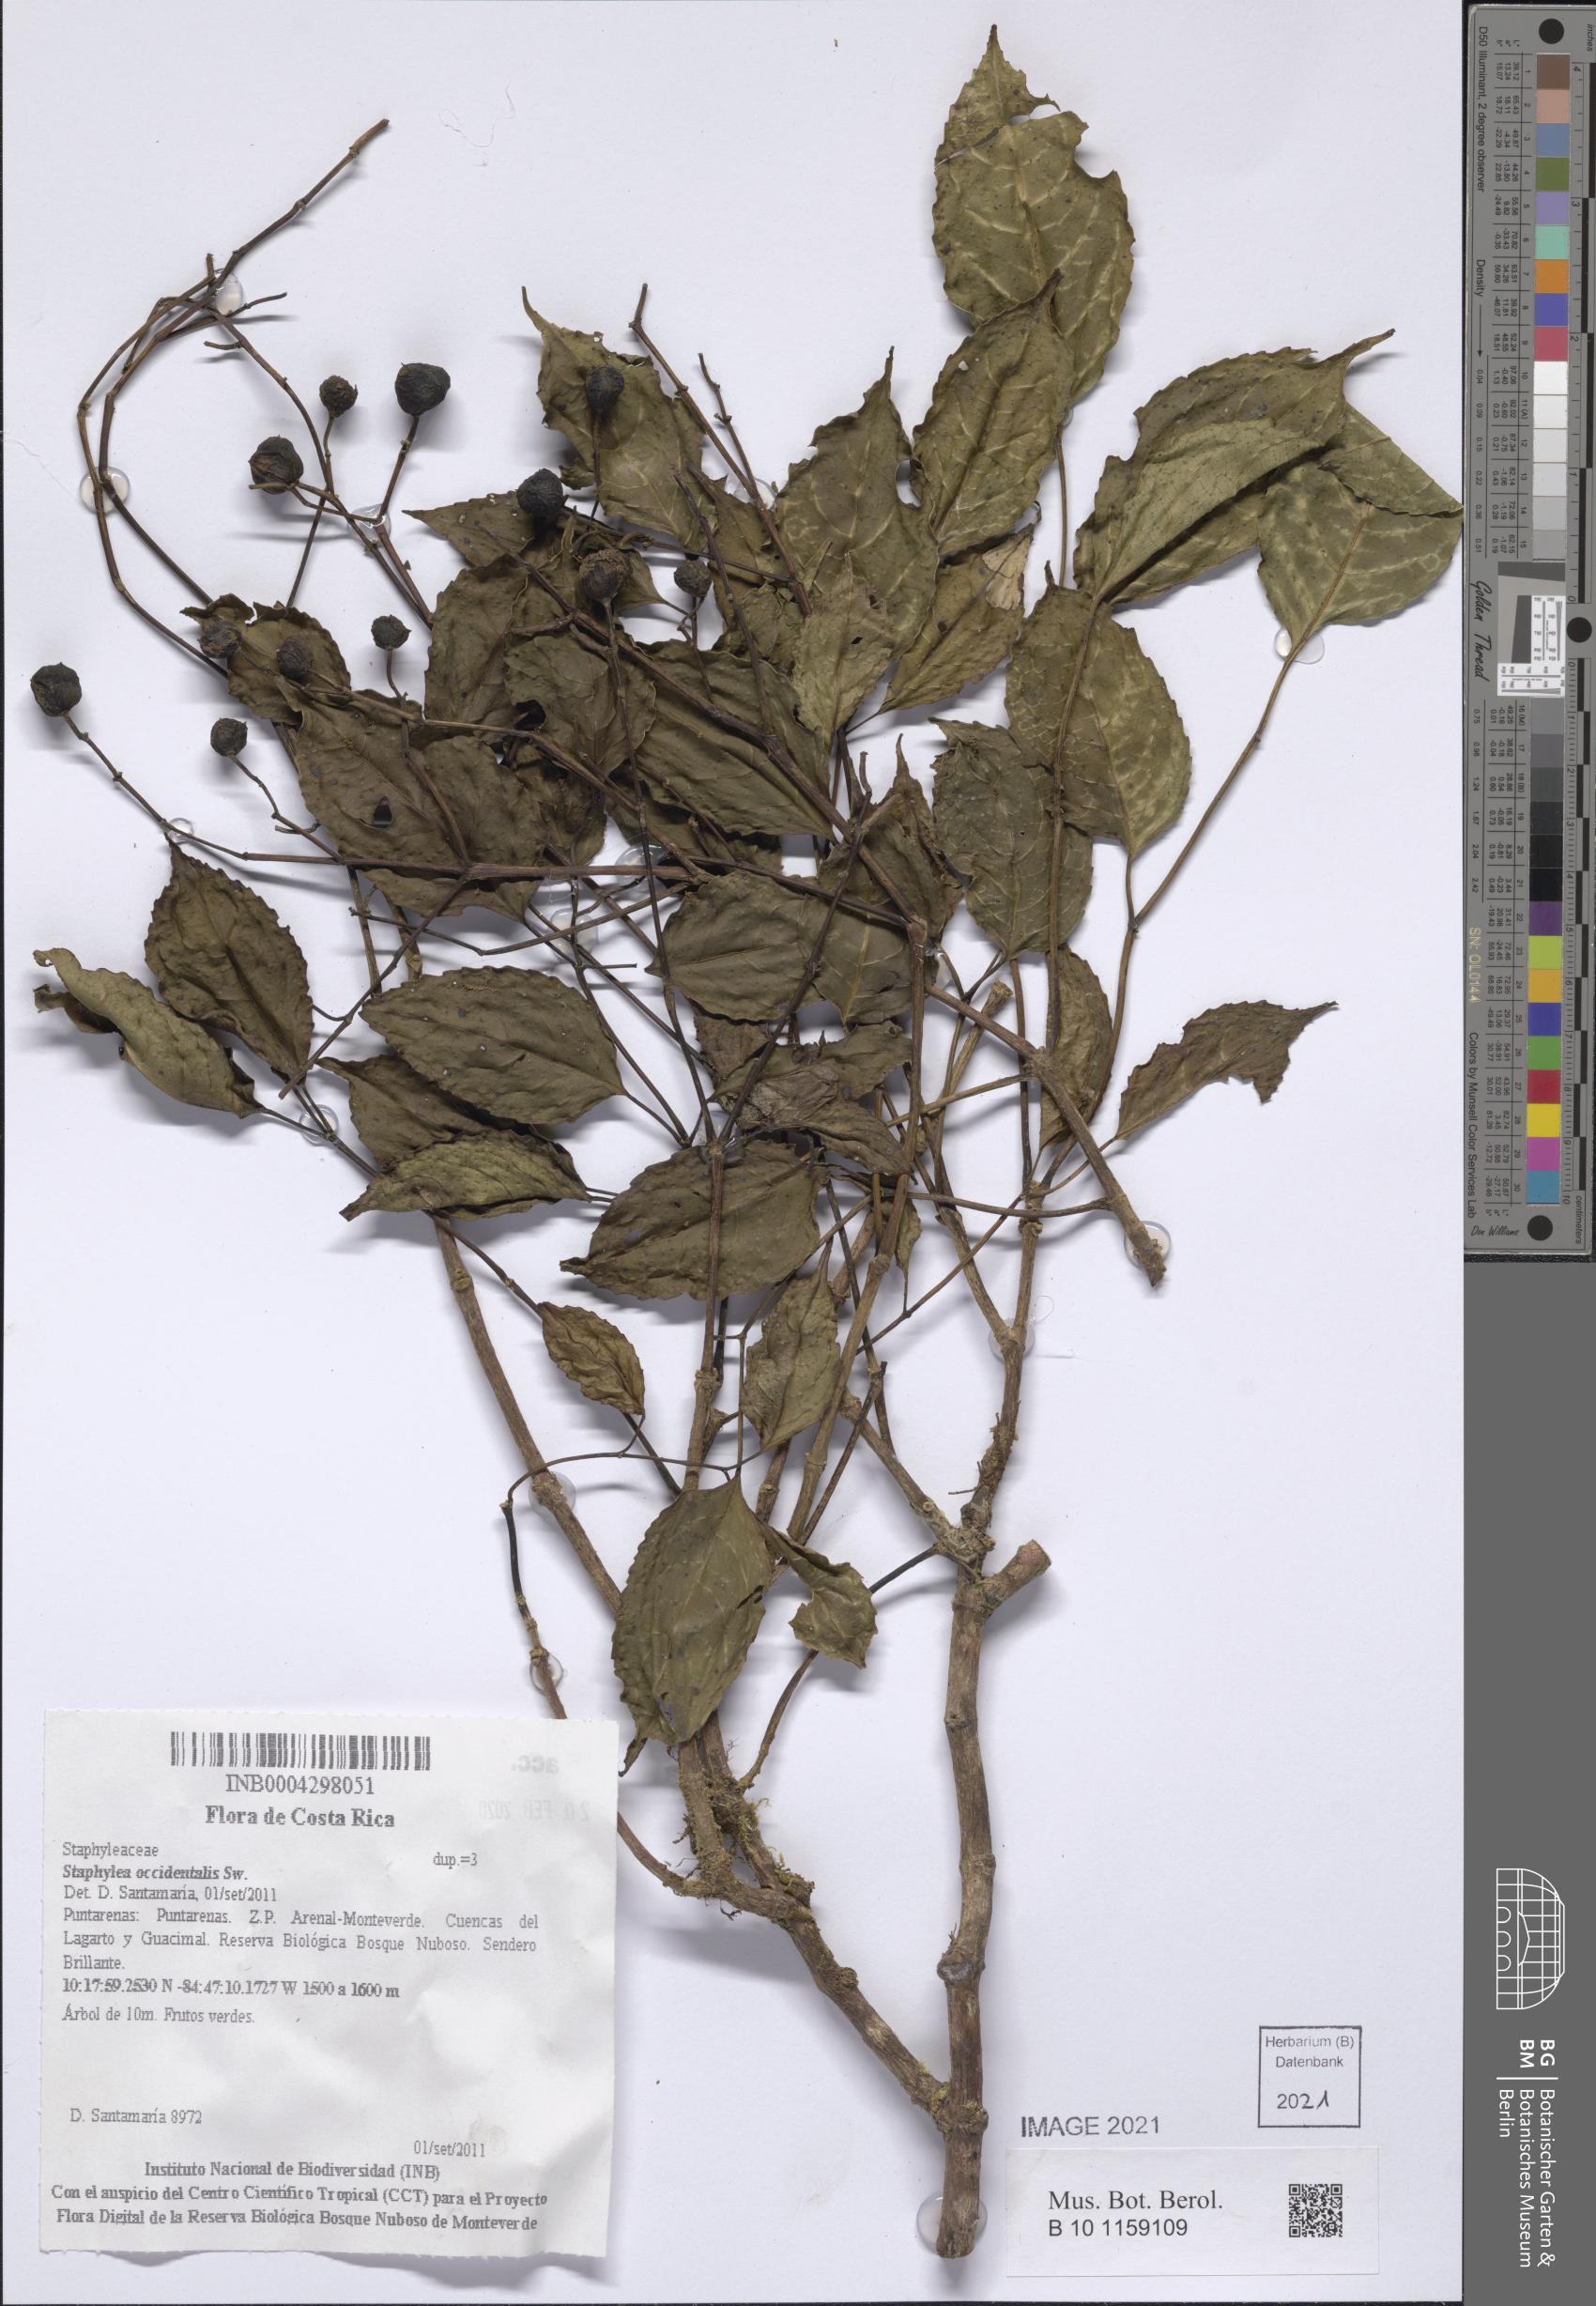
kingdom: Plantae
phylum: Tracheophyta
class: Magnoliopsida
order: Crossosomatales
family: Staphyleaceae
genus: Turpinia
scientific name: Turpinia occidentalis
